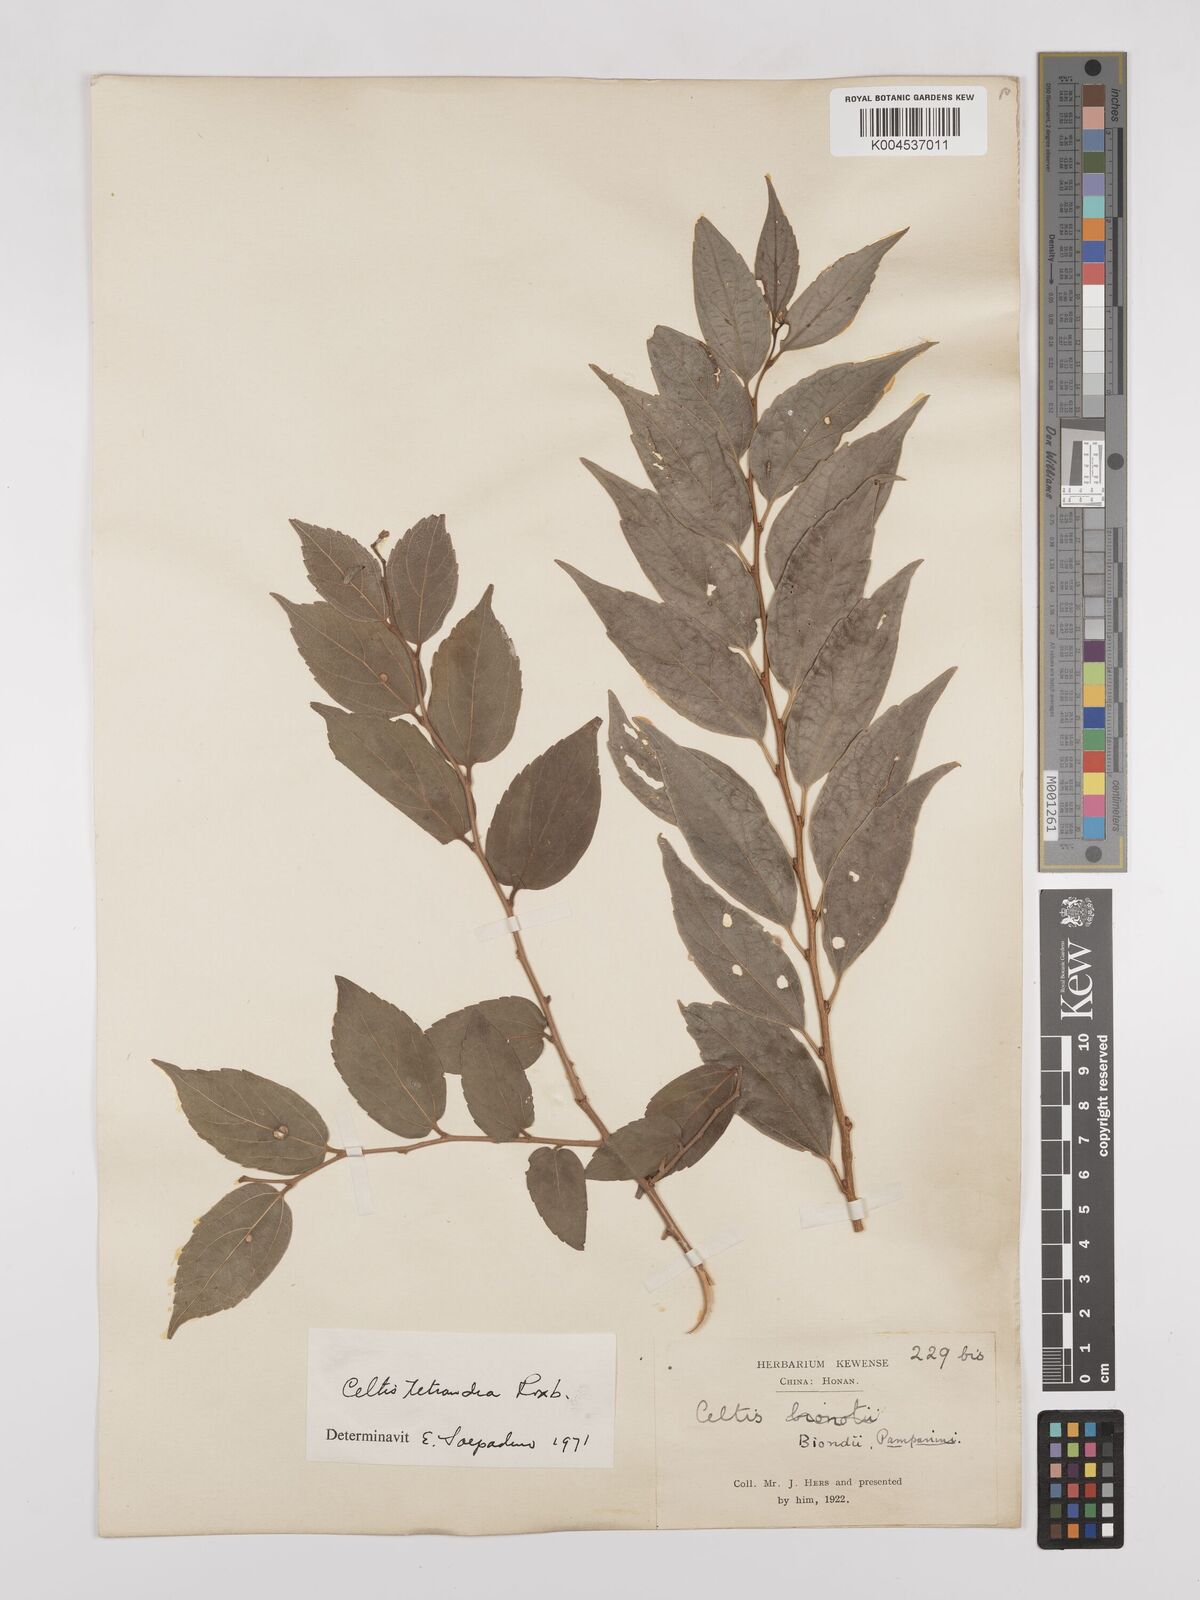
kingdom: Plantae
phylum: Tracheophyta
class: Magnoliopsida
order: Rosales
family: Cannabaceae
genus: Celtis
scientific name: Celtis tetrandra
